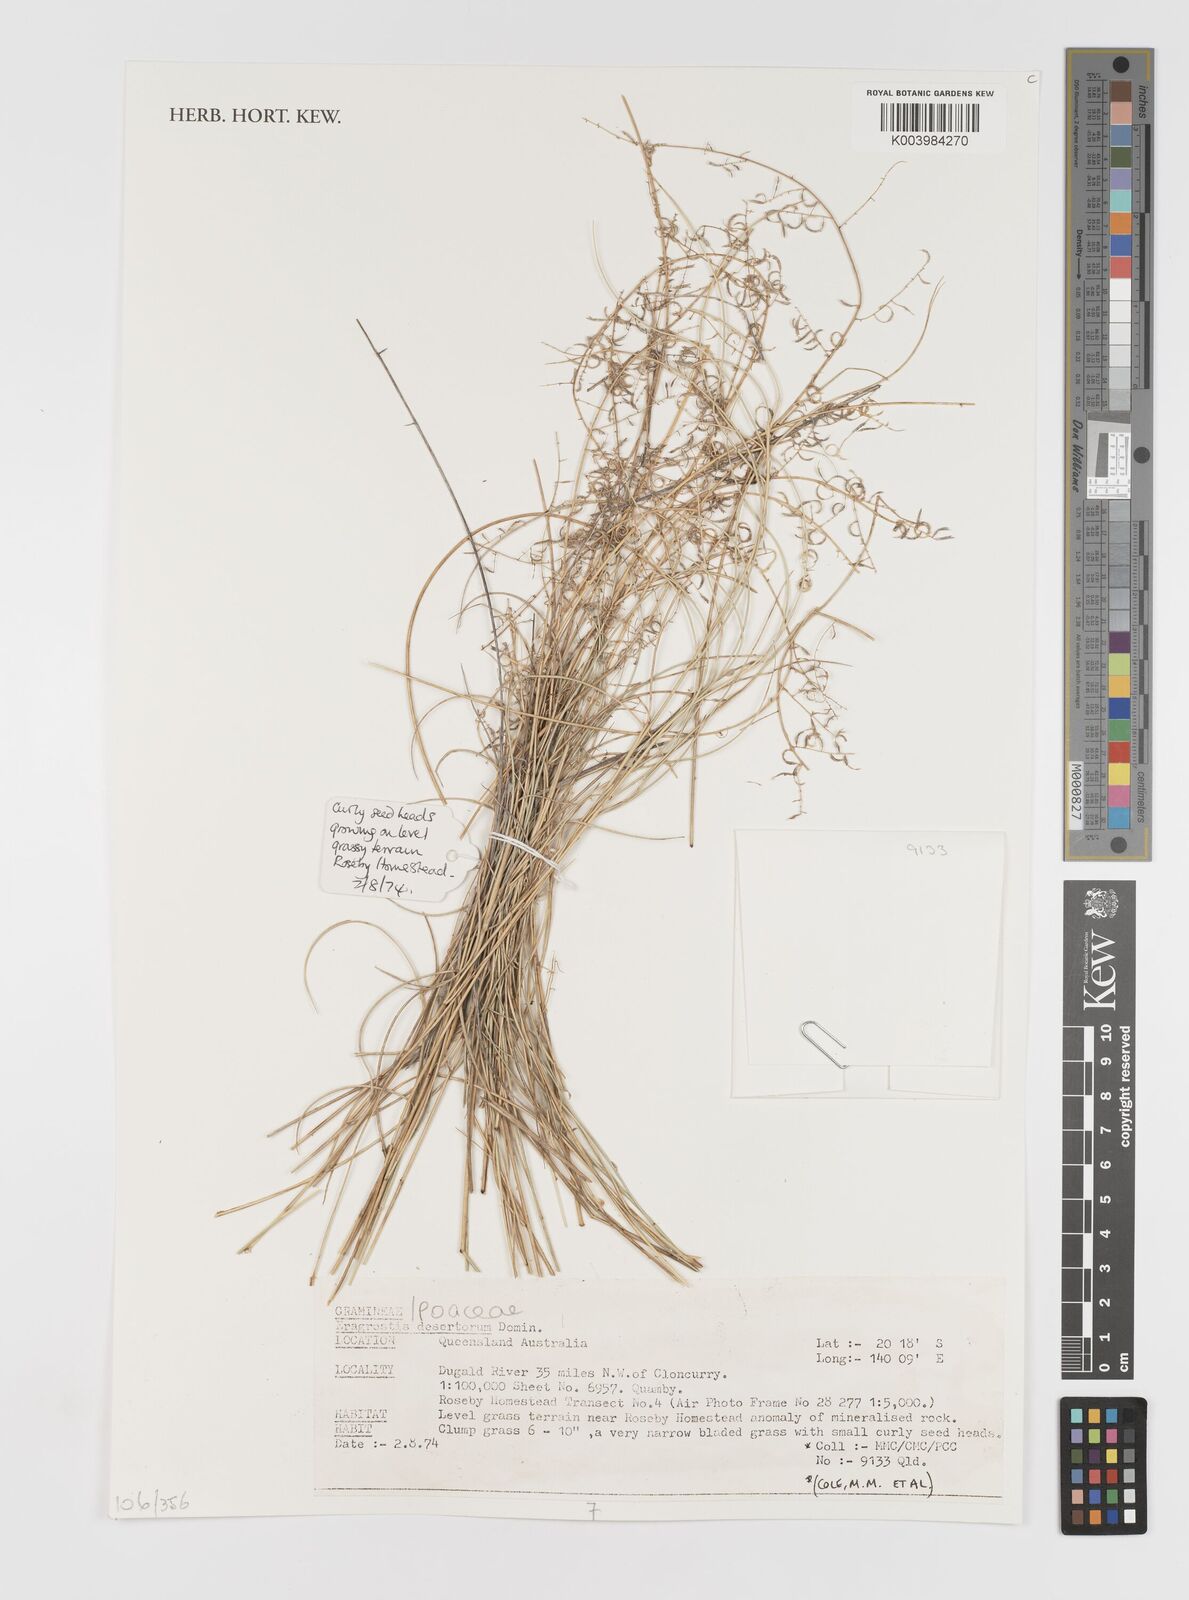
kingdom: Plantae
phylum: Tracheophyta
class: Liliopsida
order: Poales
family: Poaceae
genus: Eragrostis
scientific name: Eragrostis desertorum
